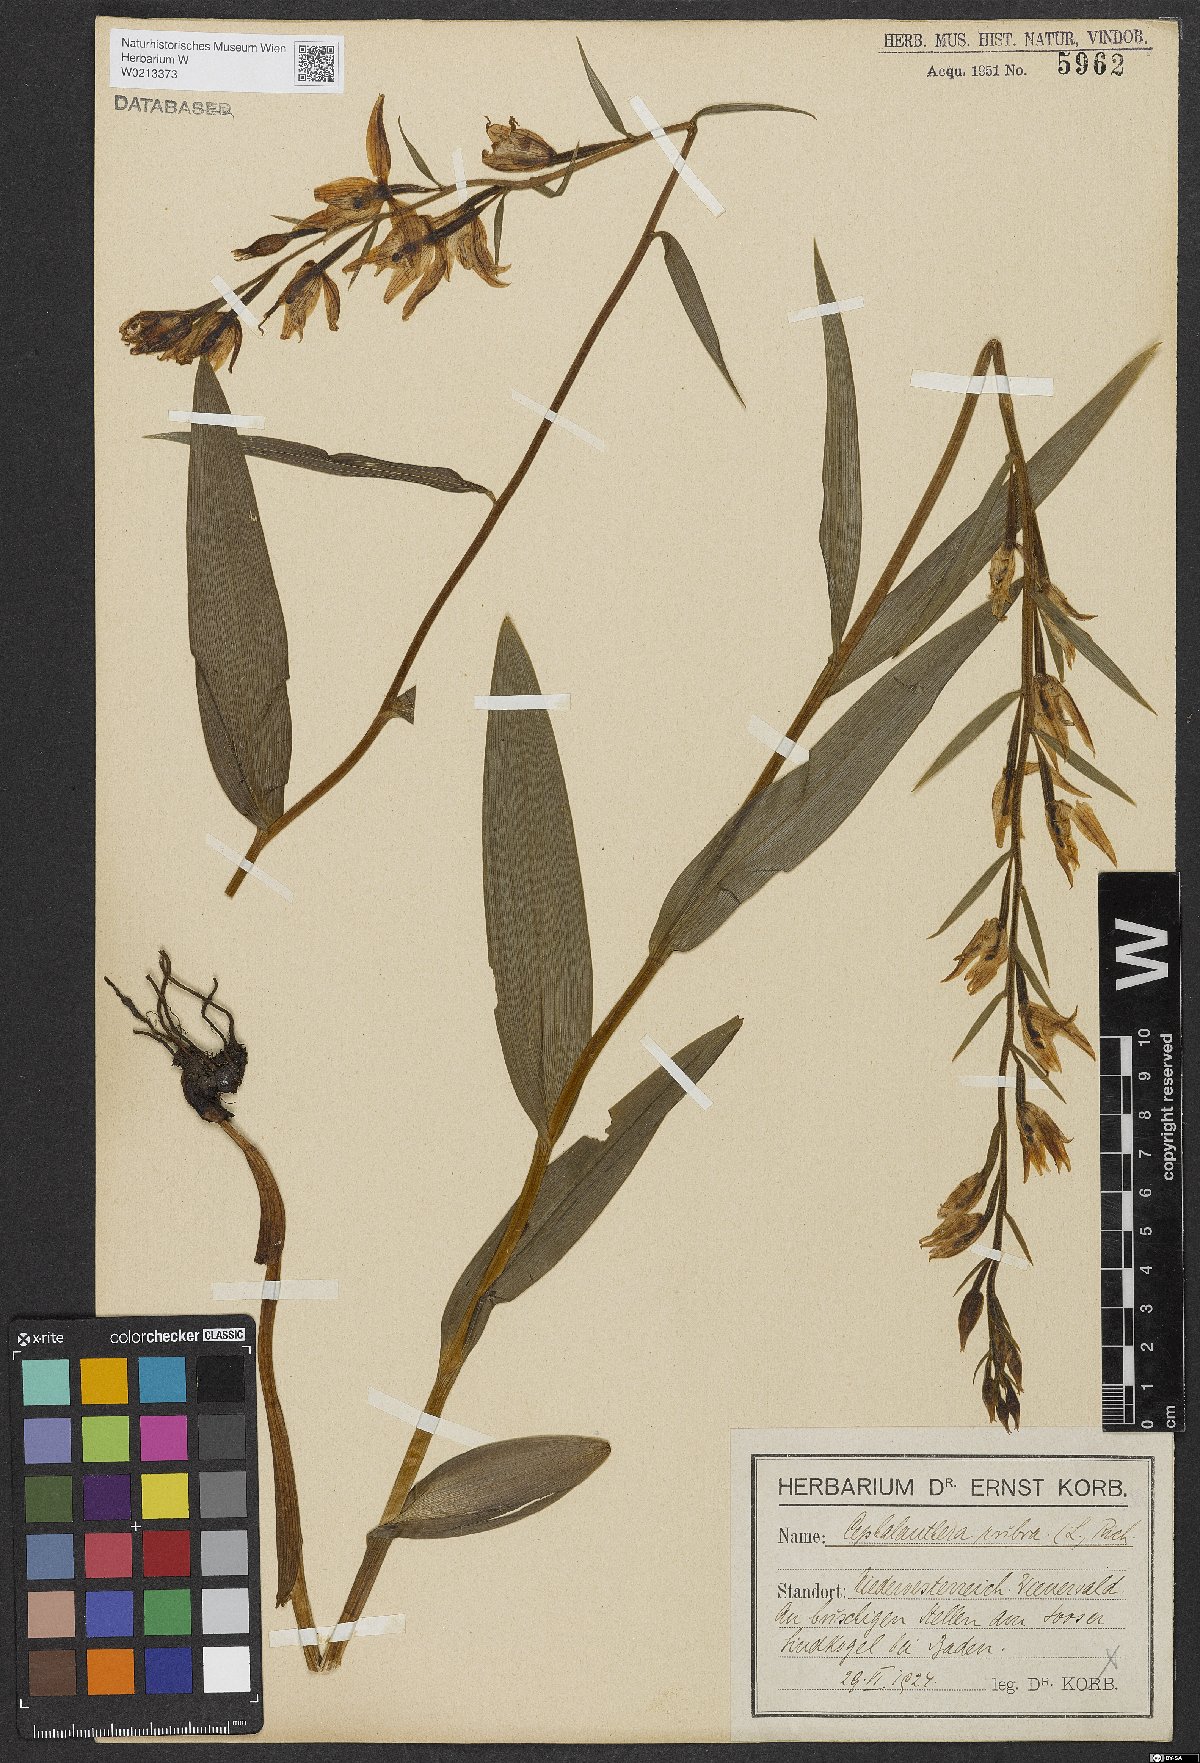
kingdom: Plantae
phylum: Tracheophyta
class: Liliopsida
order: Asparagales
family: Orchidaceae
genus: Cephalanthera
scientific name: Cephalanthera rubra
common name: Red helleborine
